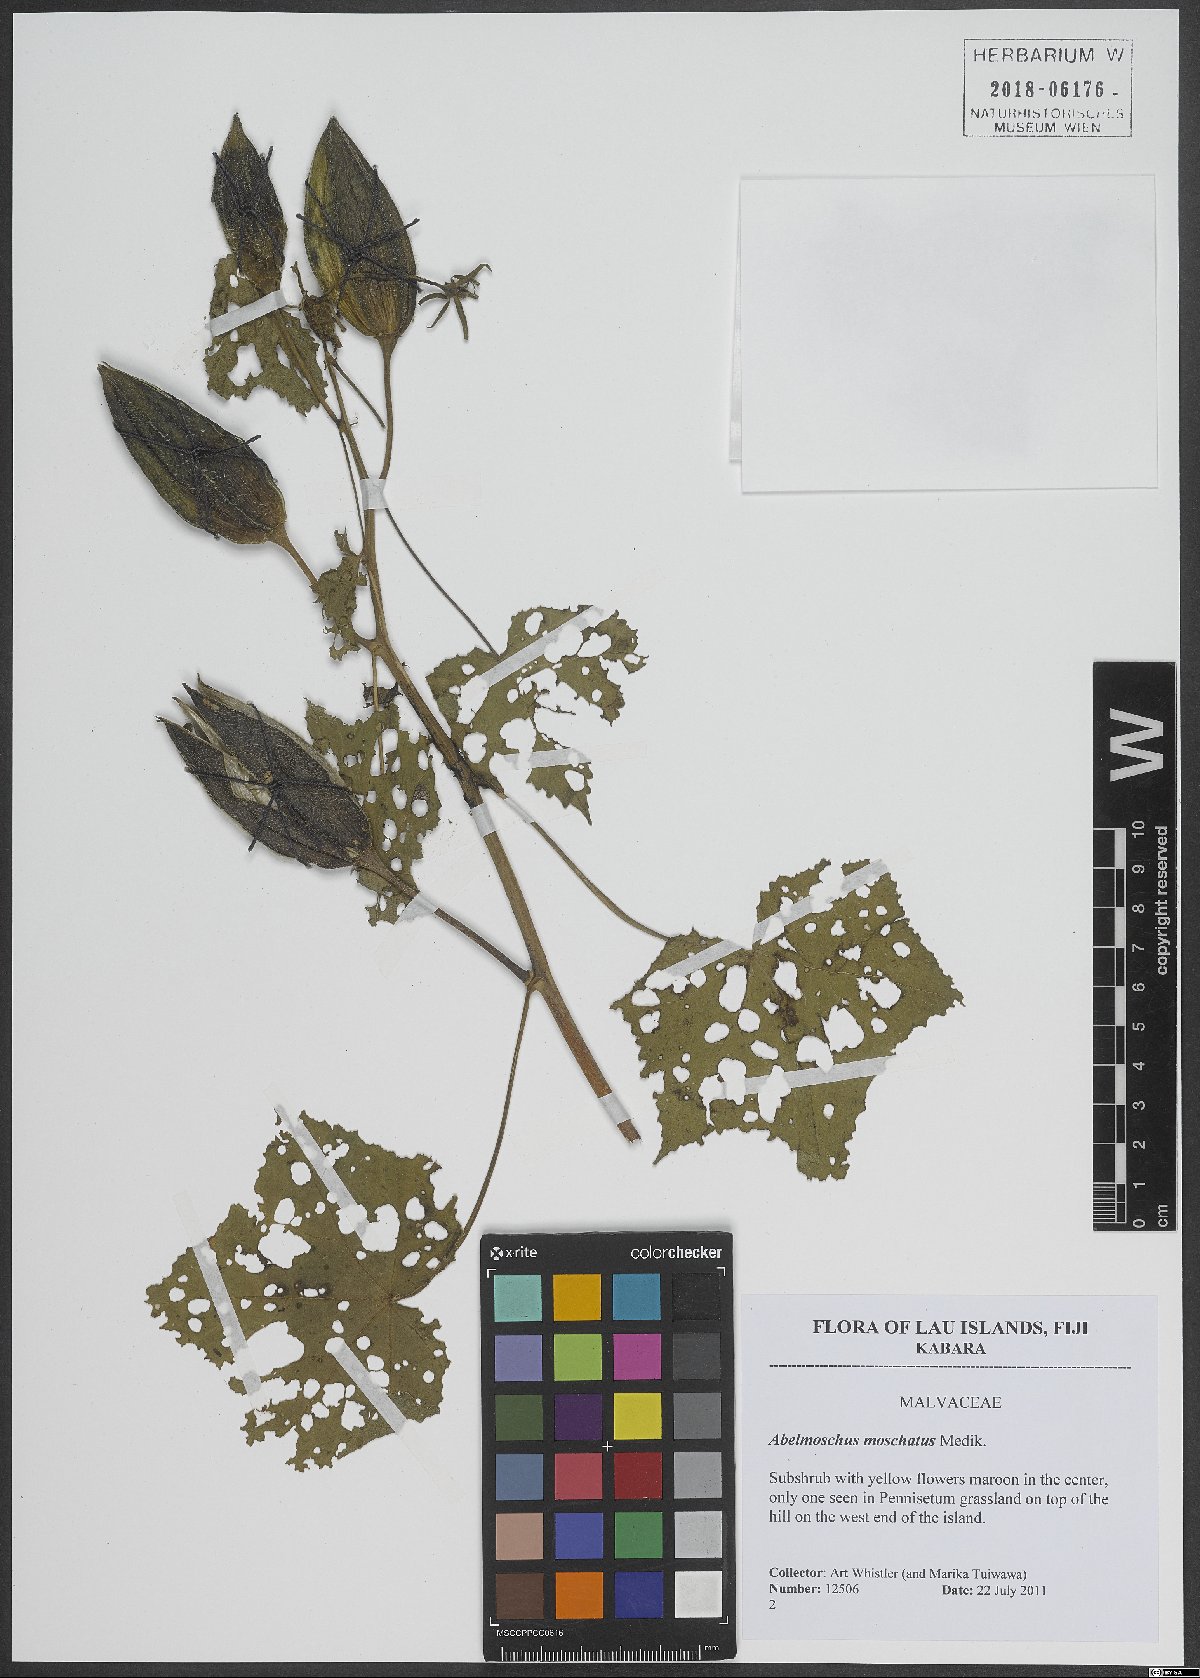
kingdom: Plantae
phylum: Tracheophyta
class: Magnoliopsida
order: Malvales
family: Malvaceae
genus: Abelmoschus
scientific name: Abelmoschus moschatus
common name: Musk okra
